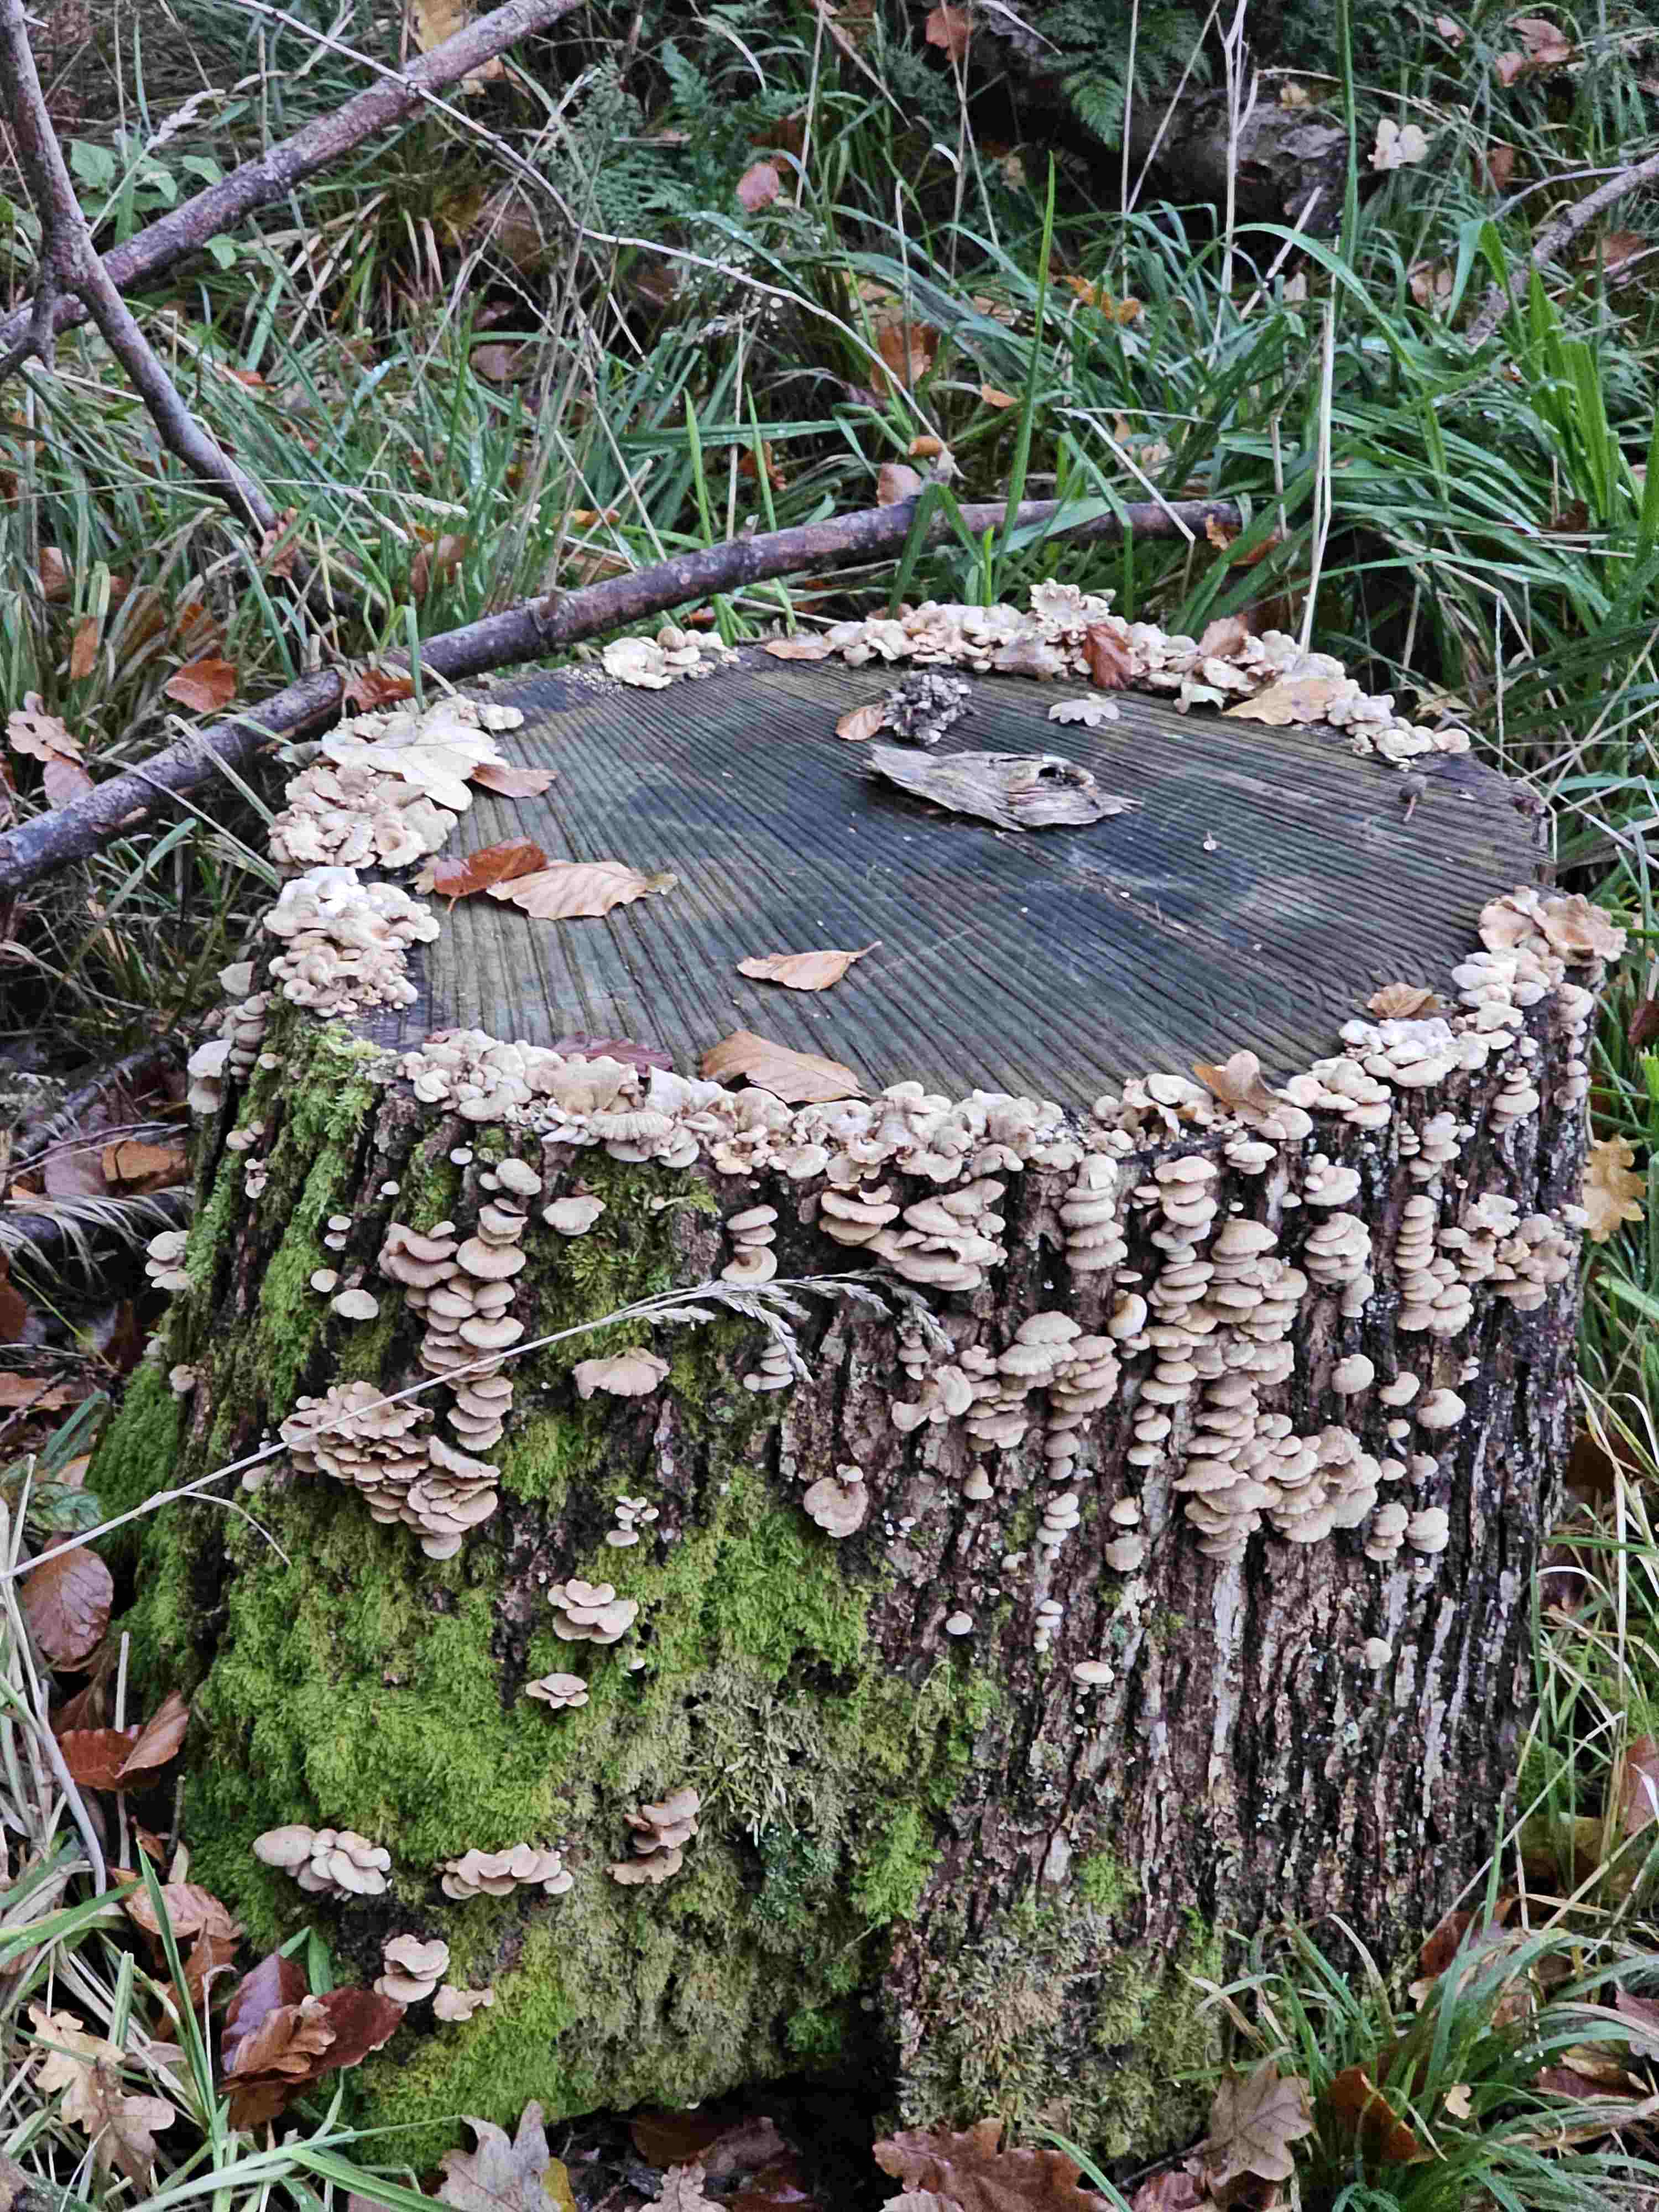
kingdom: Fungi
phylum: Basidiomycota
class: Agaricomycetes
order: Agaricales
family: Mycenaceae
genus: Panellus
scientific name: Panellus stipticus
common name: kliddet epaulethat
